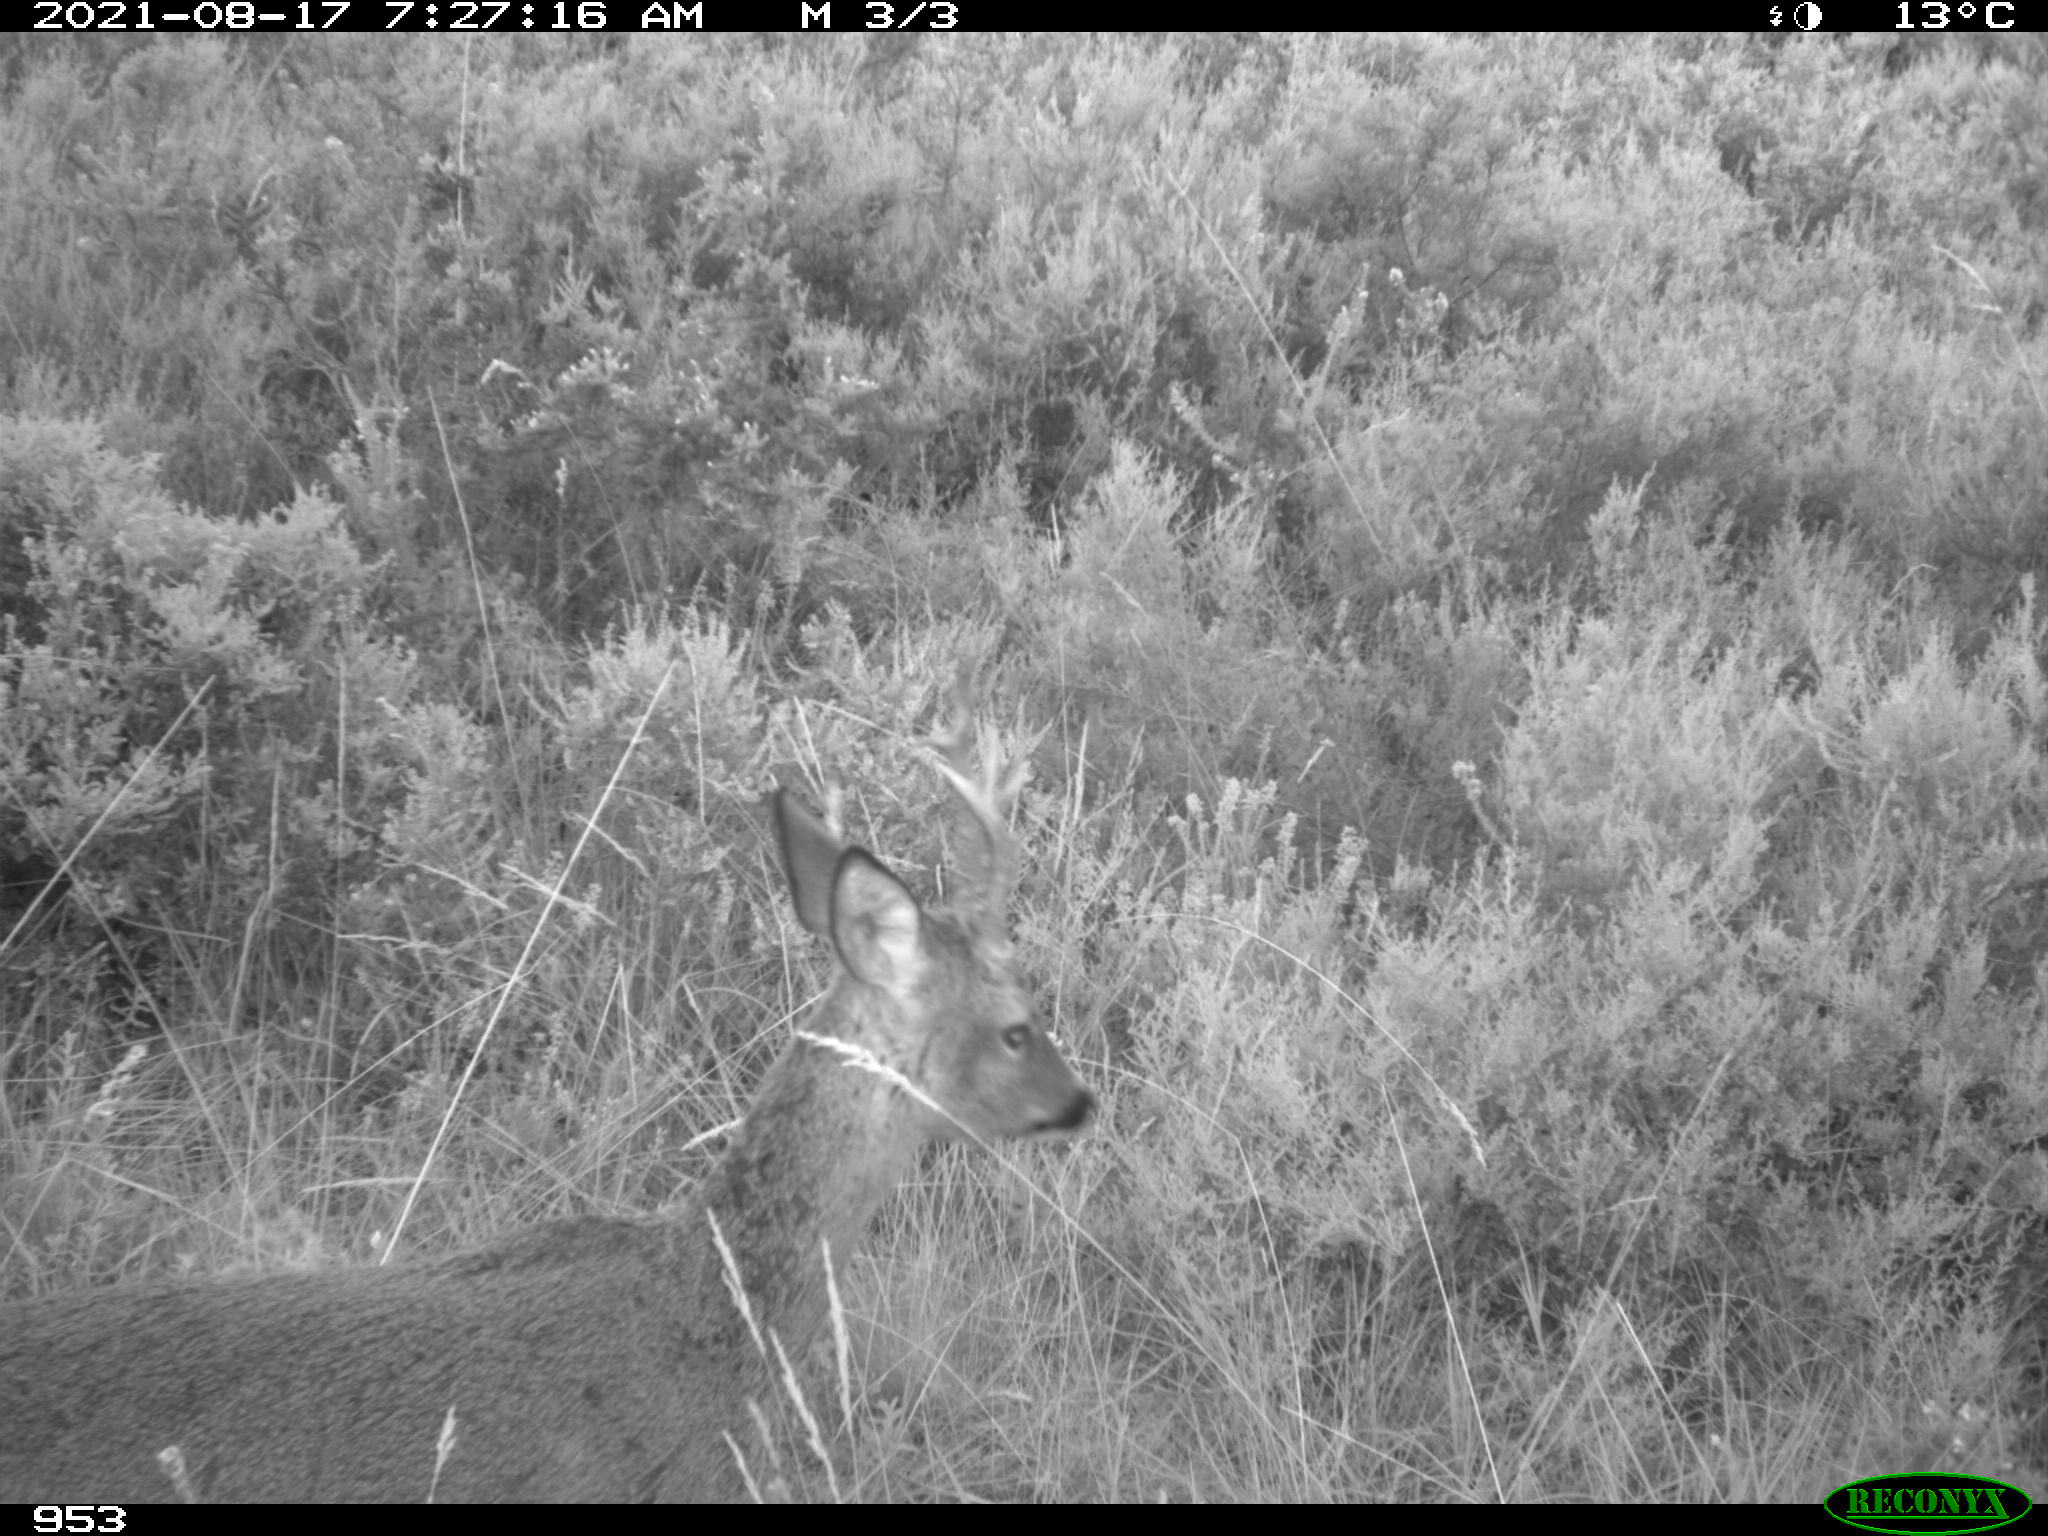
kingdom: Animalia
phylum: Chordata
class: Mammalia
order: Artiodactyla
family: Cervidae
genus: Capreolus
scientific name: Capreolus capreolus
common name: Western roe deer
